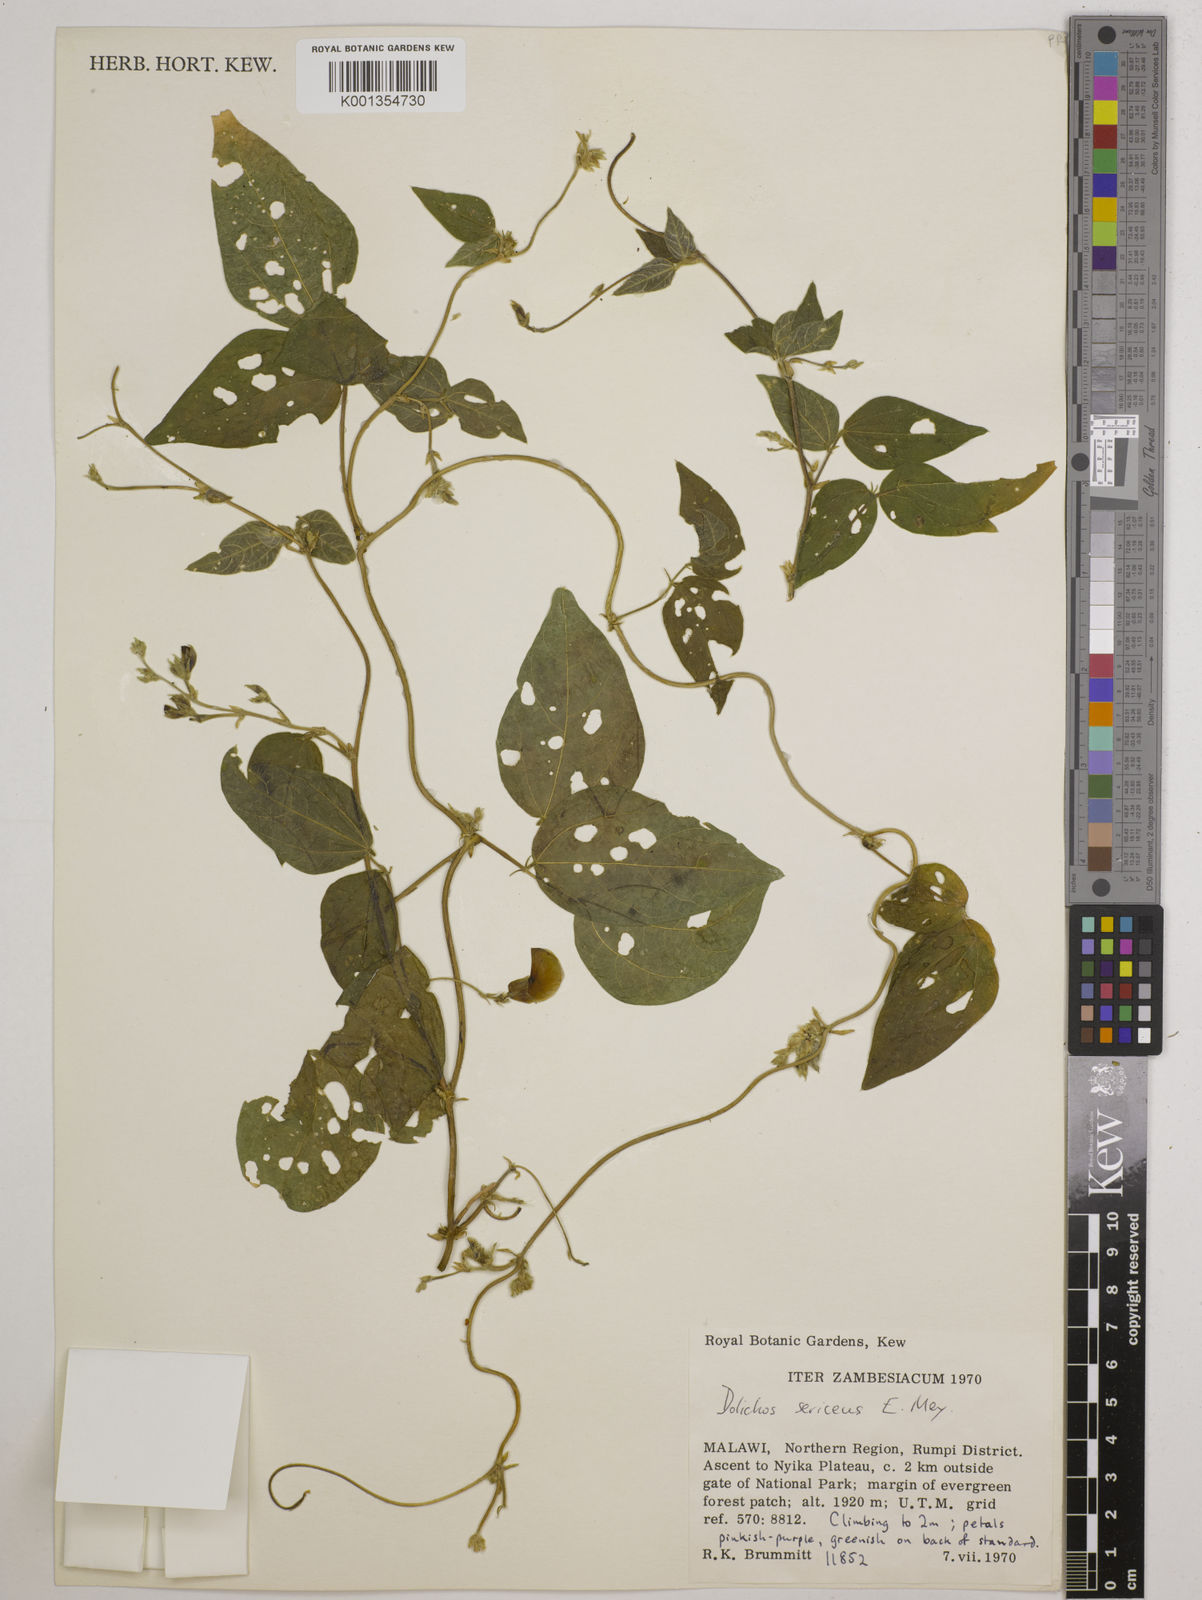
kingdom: Plantae
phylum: Tracheophyta
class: Magnoliopsida
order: Fabales
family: Fabaceae
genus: Dolichos
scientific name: Dolichos
